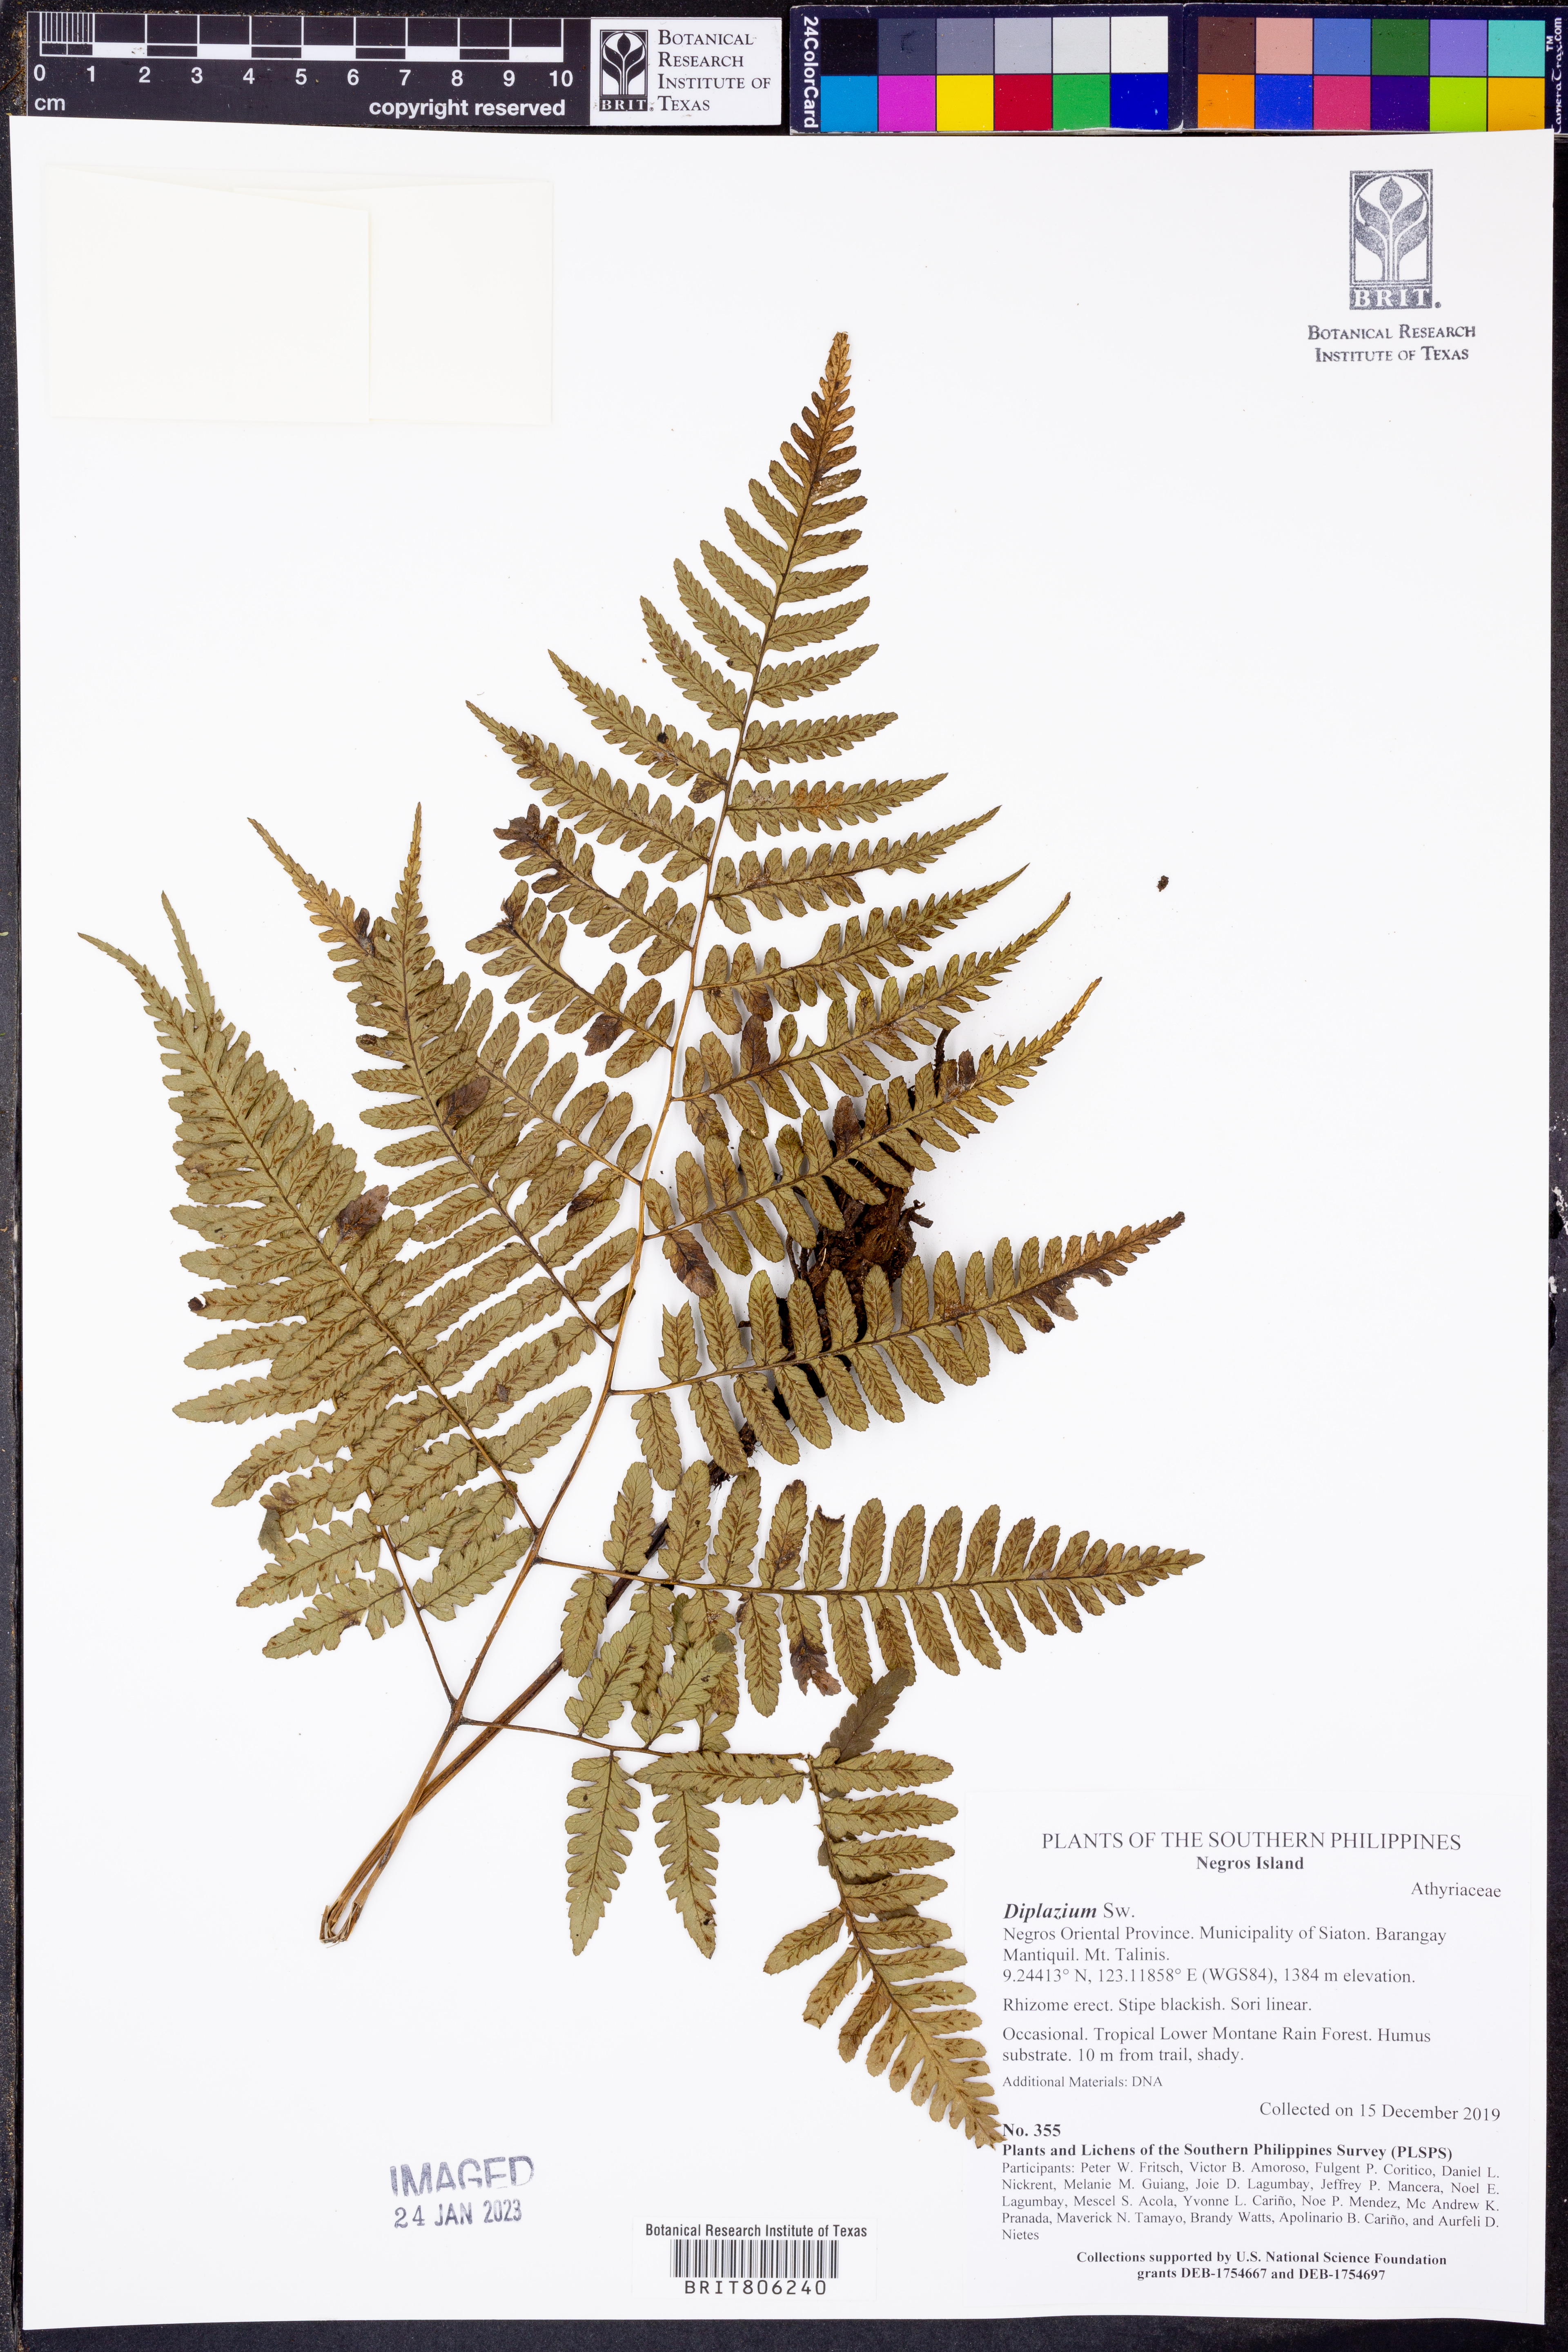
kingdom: Plantae
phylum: Tracheophyta
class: Polypodiopsida
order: Polypodiales
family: Athyriaceae
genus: Diplazium
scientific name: Diplazium
